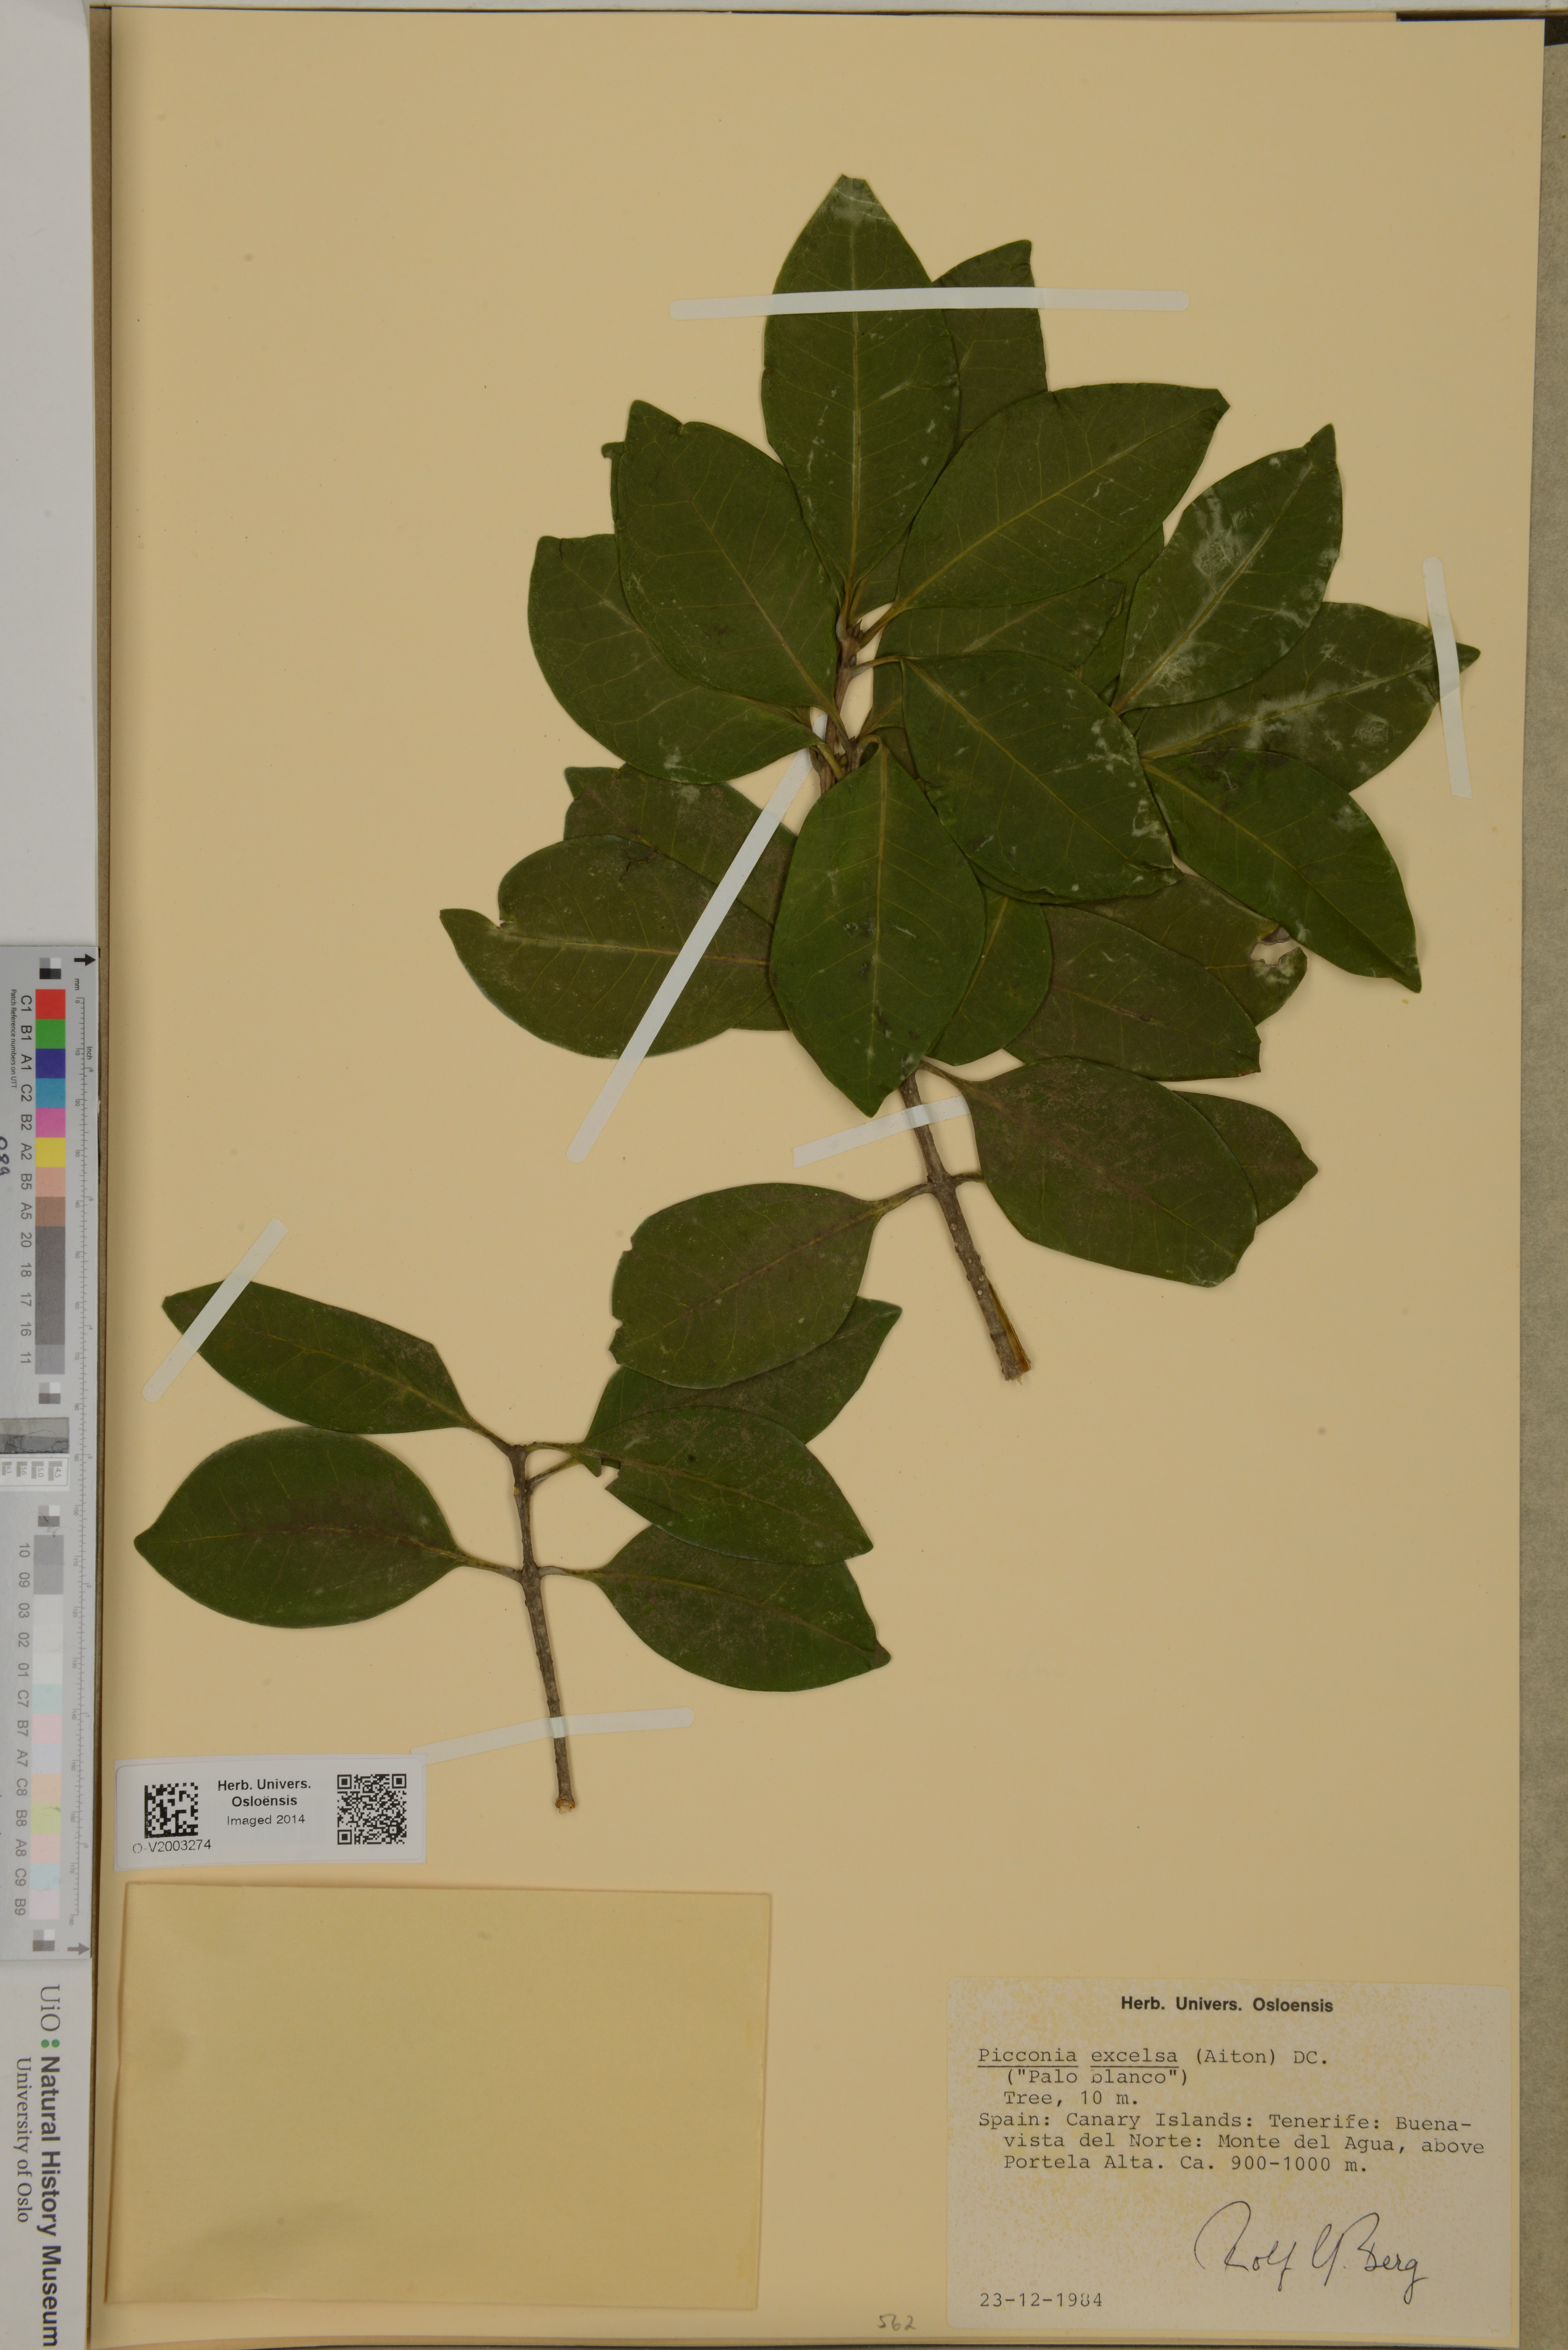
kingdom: Plantae
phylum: Tracheophyta
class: Magnoliopsida
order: Lamiales
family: Oleaceae
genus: Picconia
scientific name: Picconia excelsa
